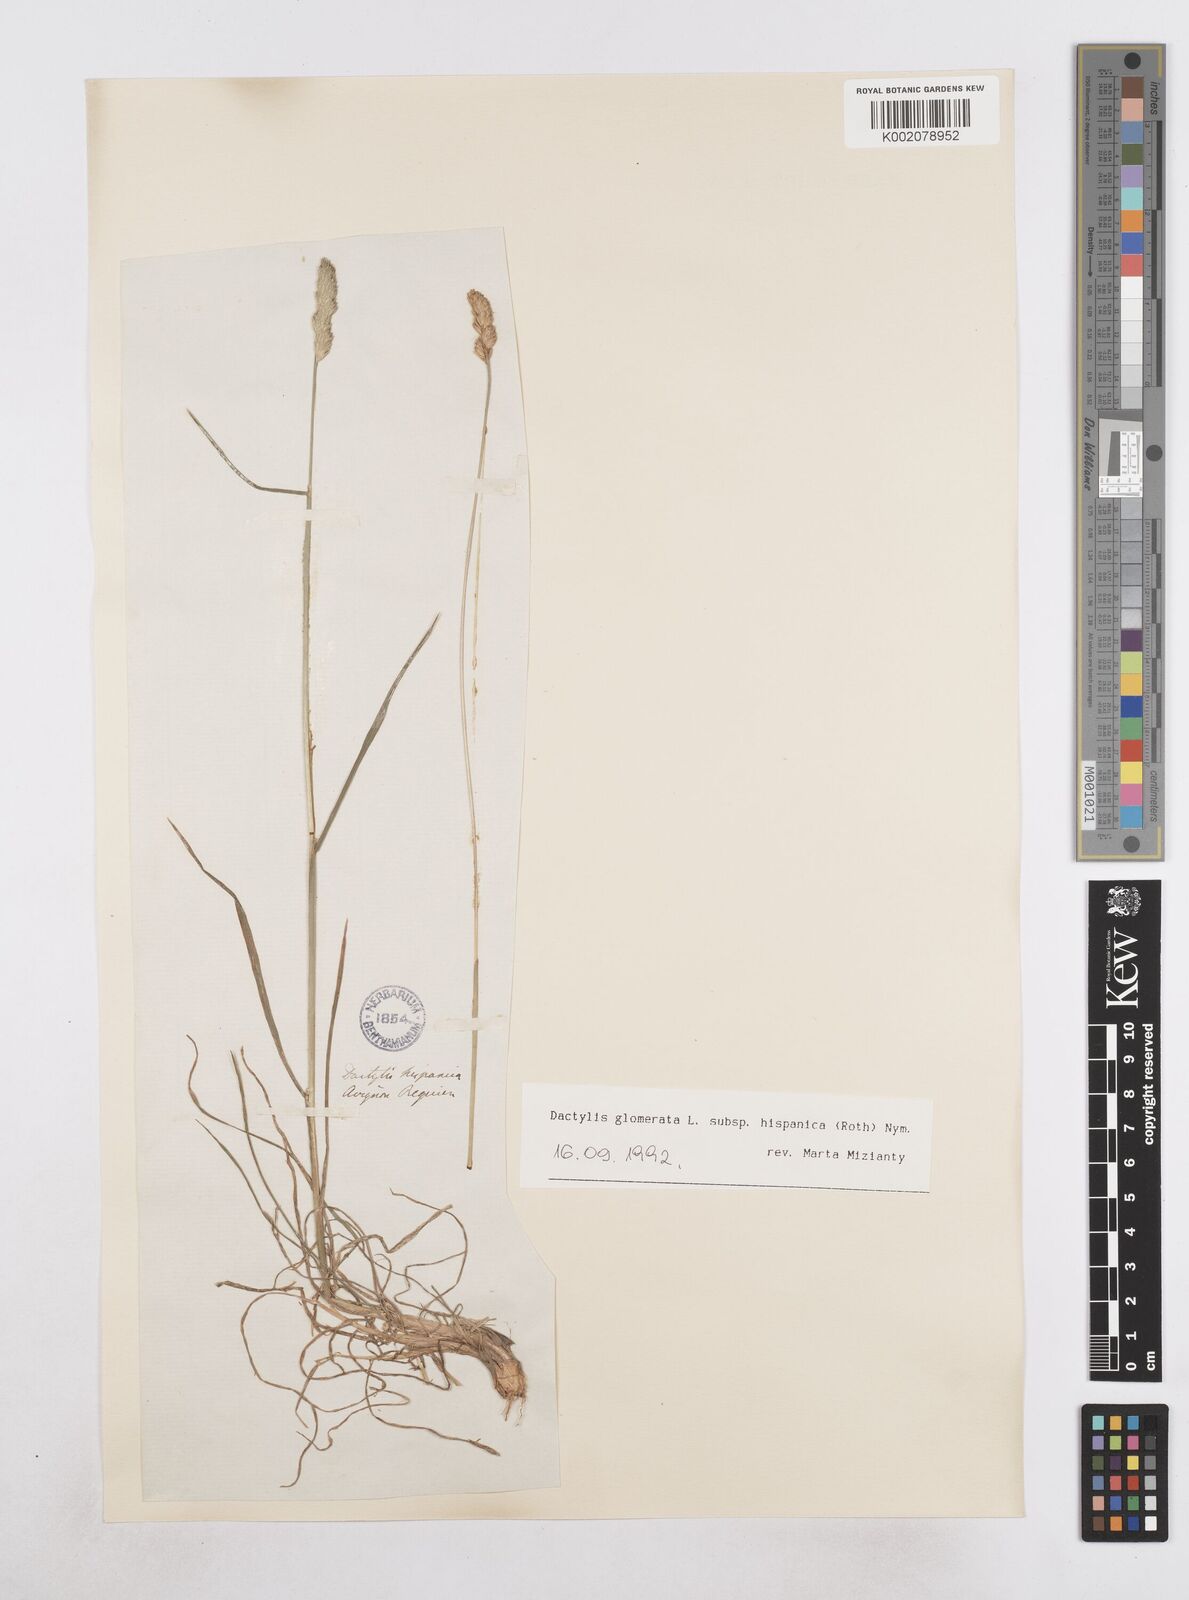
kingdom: Plantae
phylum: Tracheophyta
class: Liliopsida
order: Poales
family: Poaceae
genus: Dactylis
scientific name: Dactylis glomerata
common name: Orchardgrass
